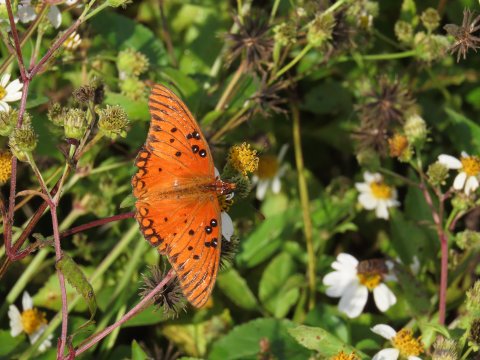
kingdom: Animalia
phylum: Arthropoda
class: Insecta
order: Lepidoptera
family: Nymphalidae
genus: Dione
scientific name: Dione vanillae
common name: Gulf Fritillary
